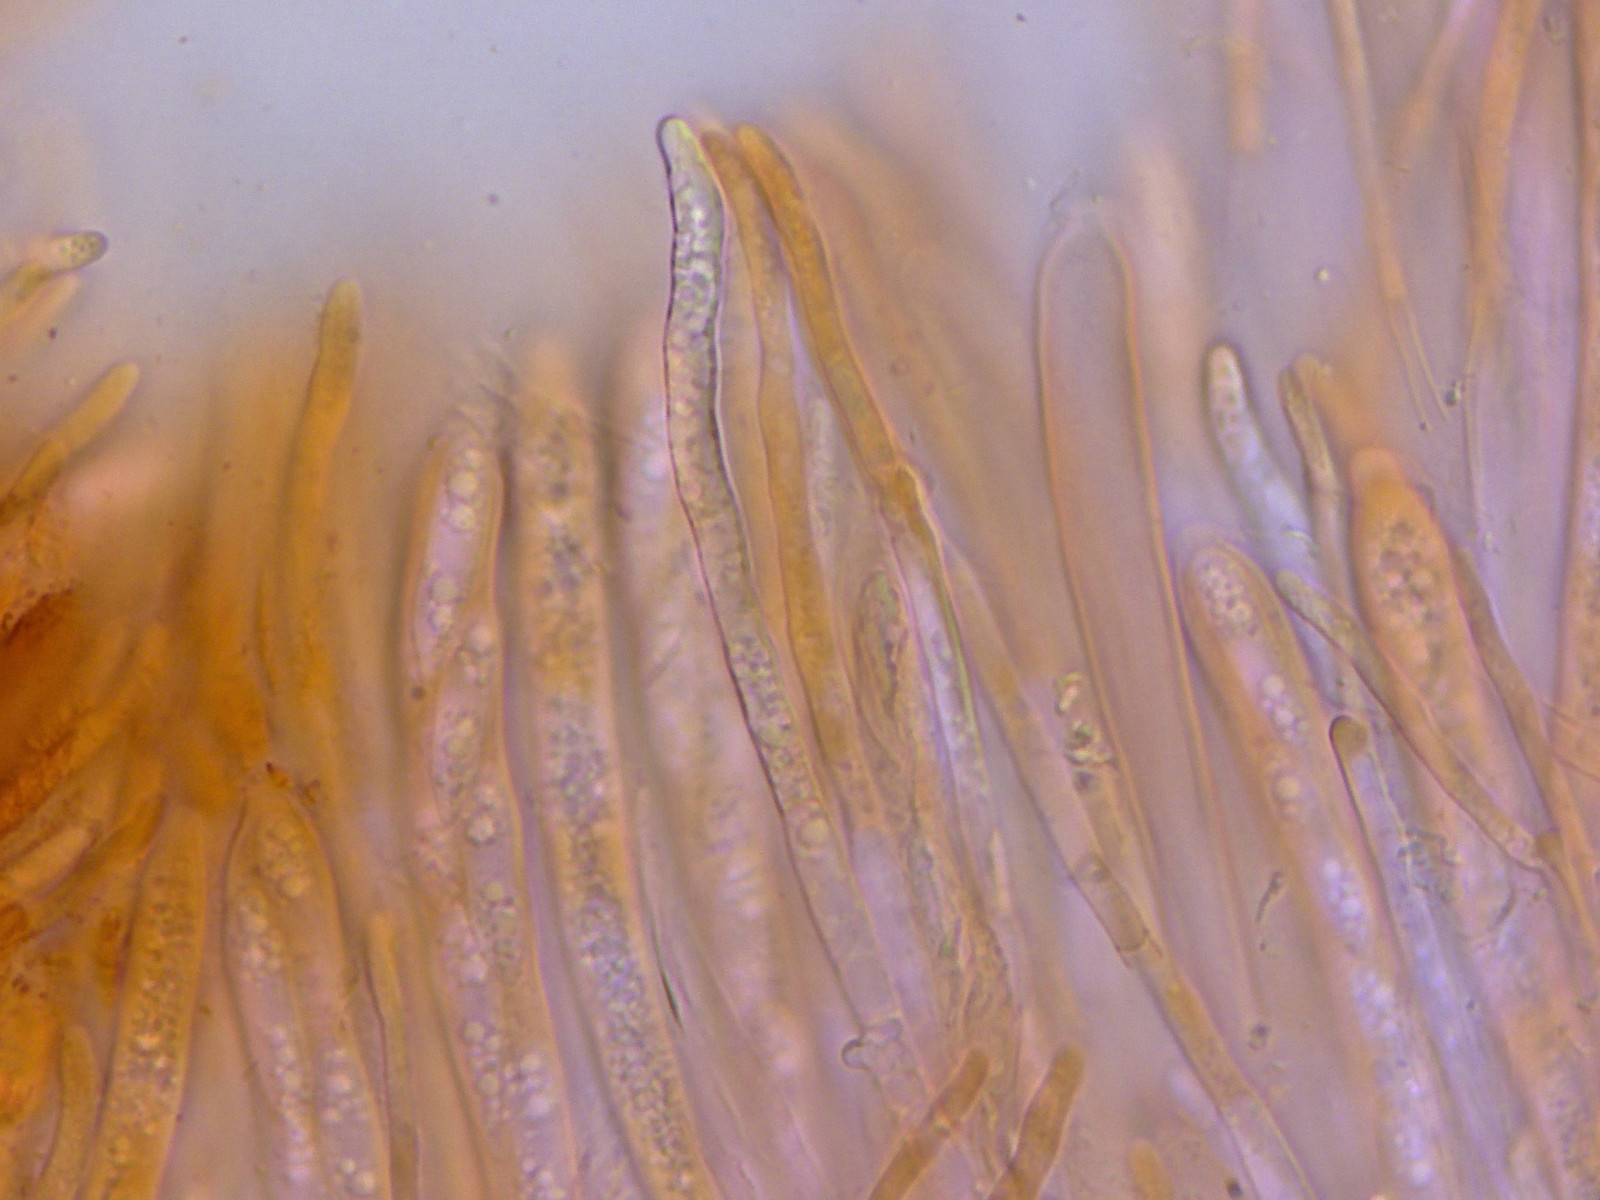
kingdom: Fungi
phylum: Ascomycota
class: Leotiomycetes
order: Helotiales
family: Helotiaceae
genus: Hymenoscyphus
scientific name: Hymenoscyphus
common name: stilkskive
